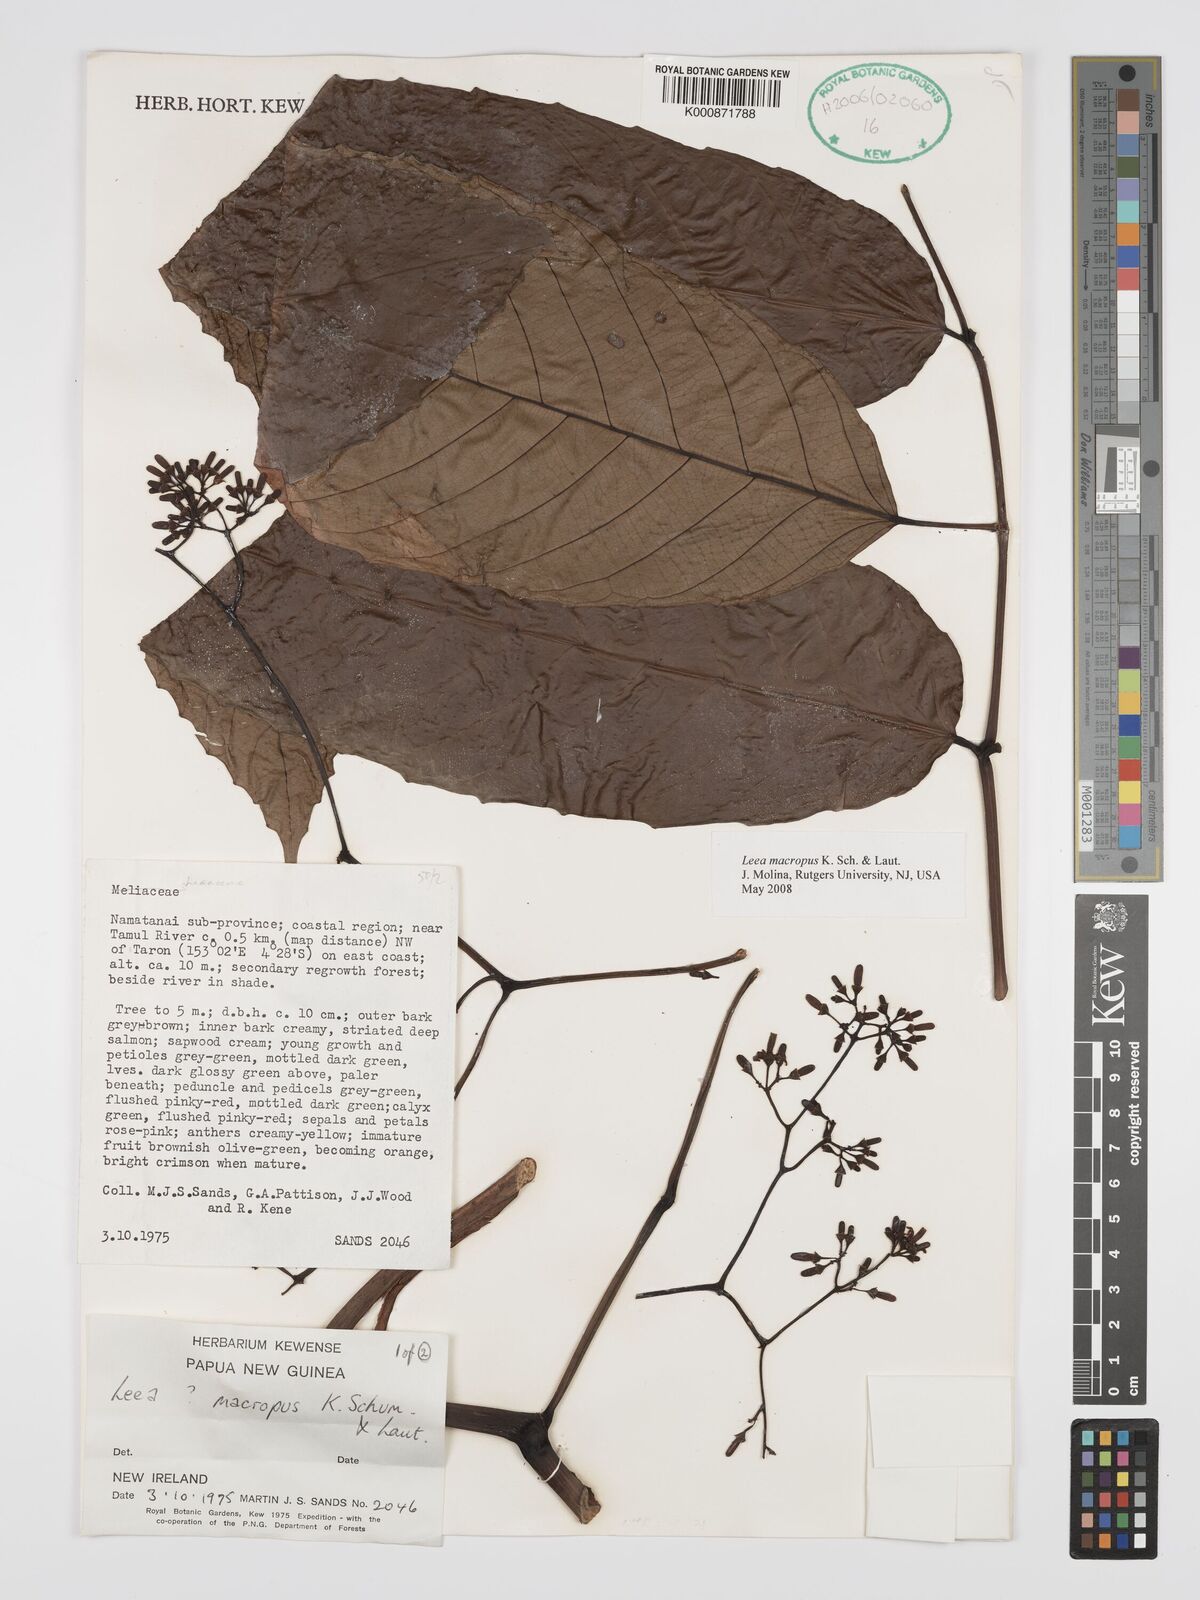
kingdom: Plantae
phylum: Tracheophyta
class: Magnoliopsida
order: Vitales
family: Vitaceae
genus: Leea
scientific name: Leea macropus
